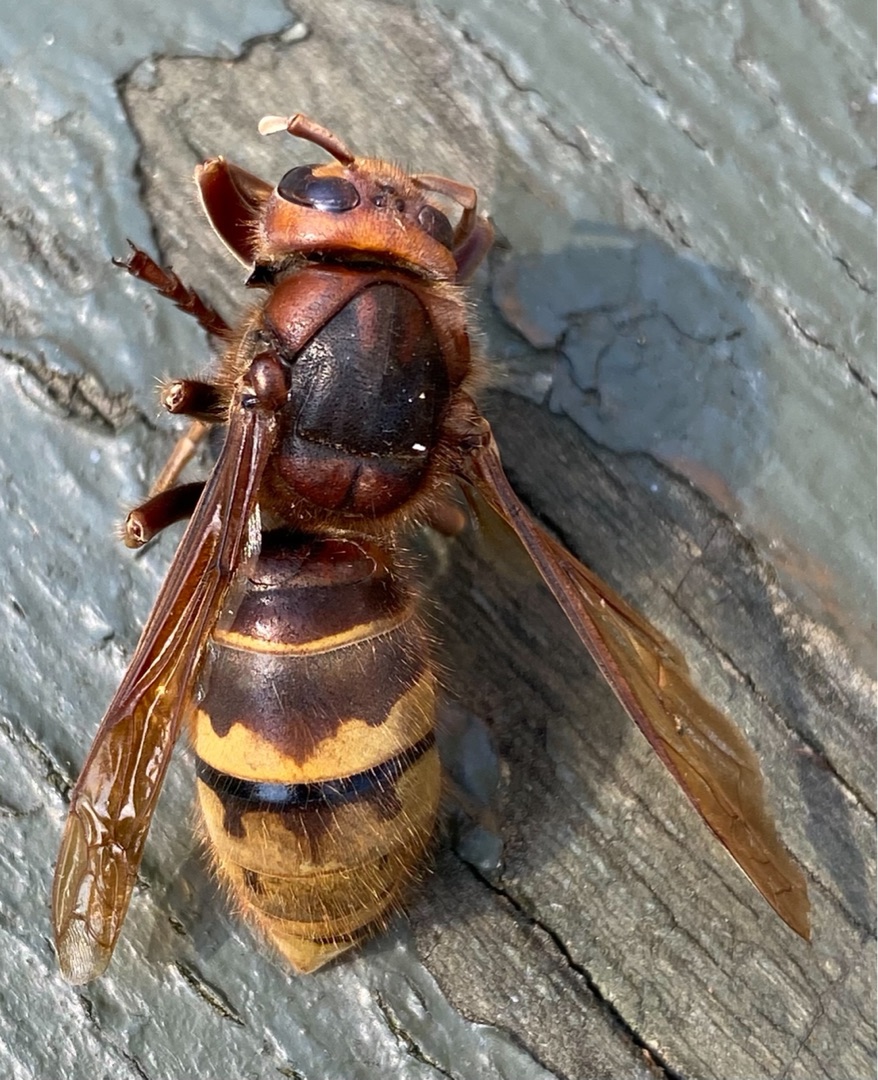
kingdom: Animalia
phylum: Arthropoda
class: Insecta
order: Hymenoptera
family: Vespidae
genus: Vespa
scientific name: Vespa crabro
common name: Stor gedehams
